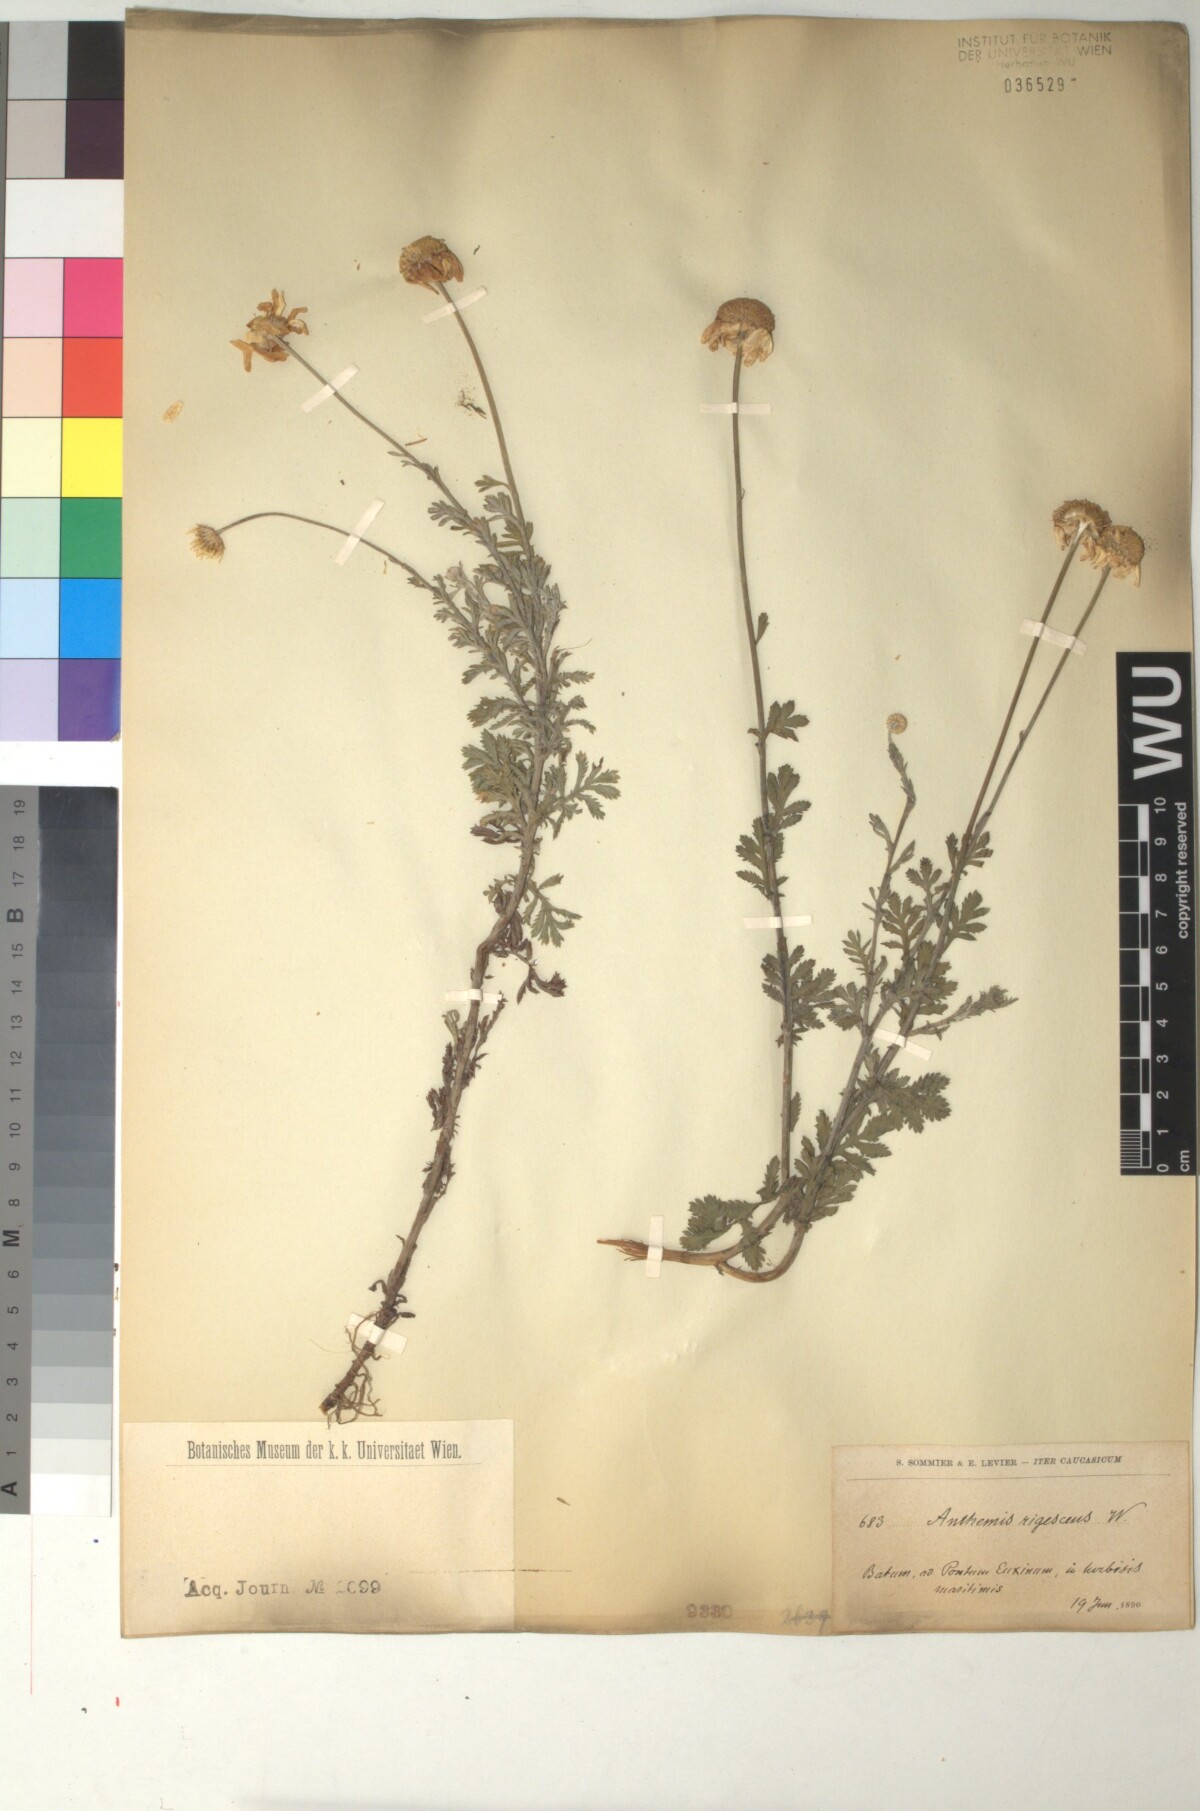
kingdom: Plantae
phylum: Tracheophyta
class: Magnoliopsida
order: Asterales
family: Asteraceae
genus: Cota
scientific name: Cota triumfetti
